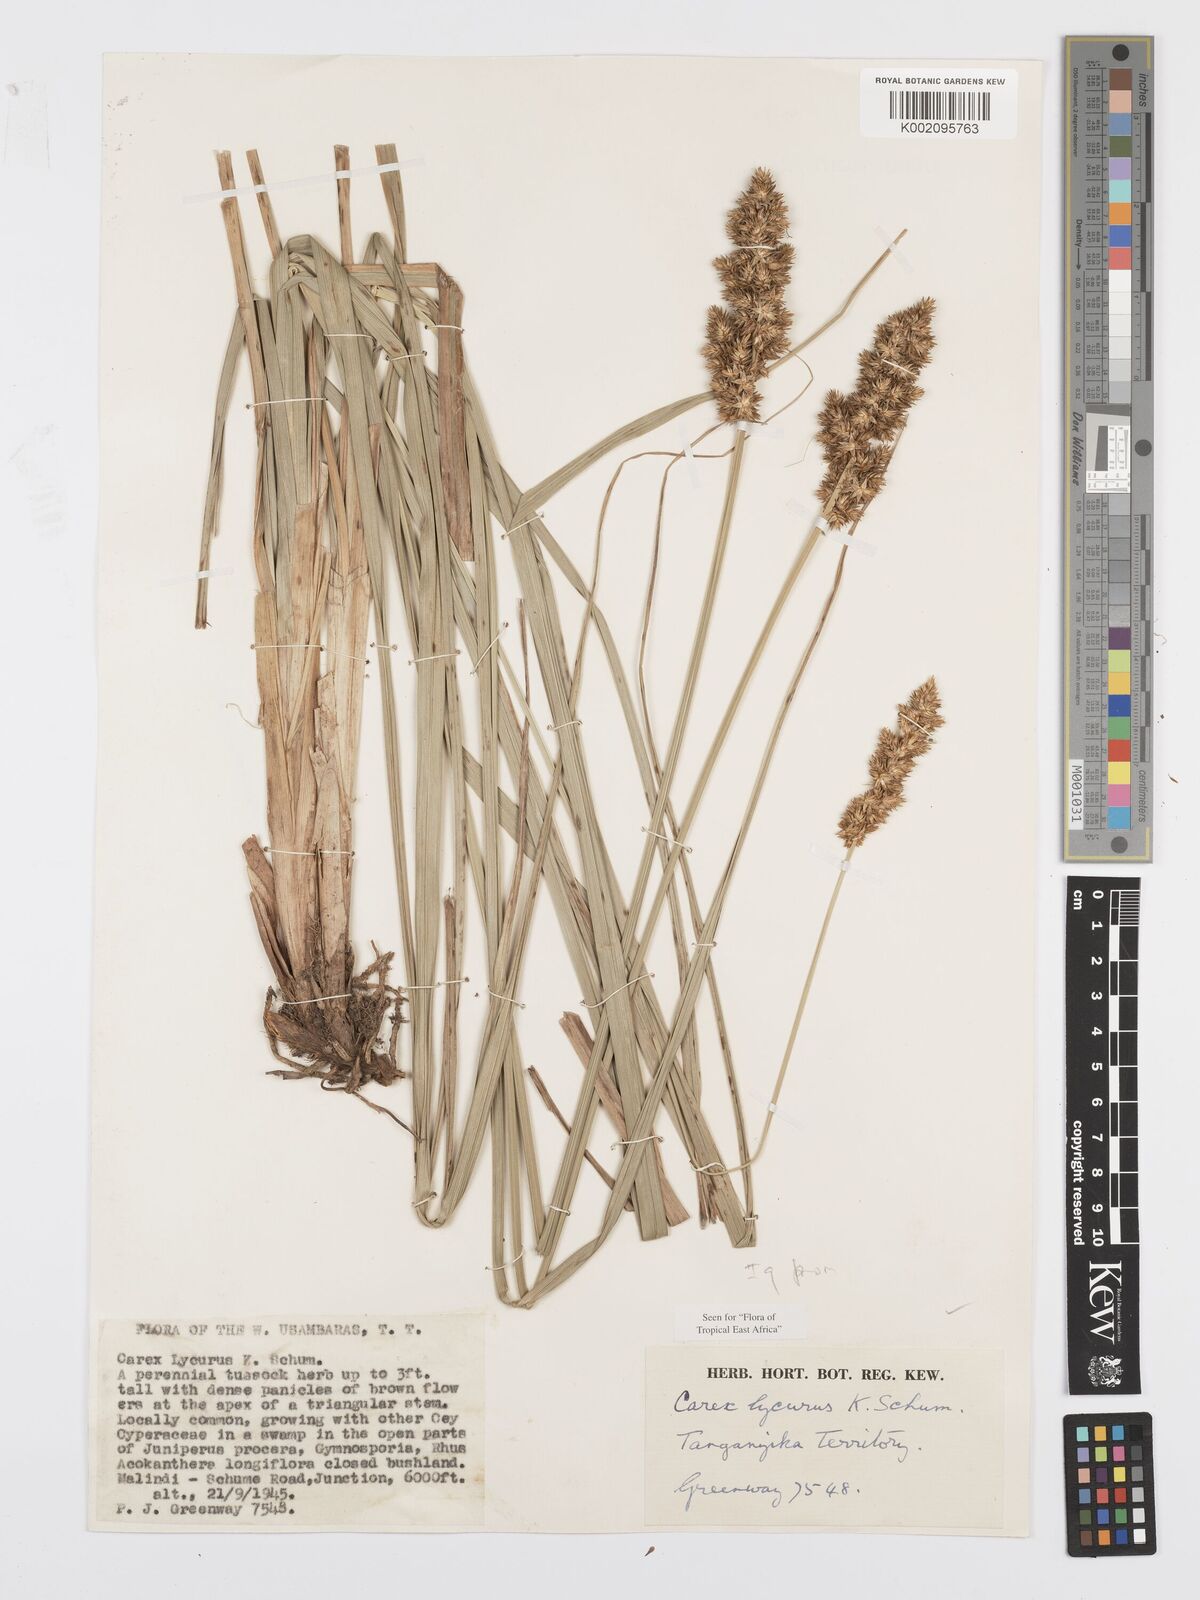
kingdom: Plantae
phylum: Tracheophyta
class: Liliopsida
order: Poales
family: Cyperaceae
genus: Carex
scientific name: Carex lycurus
